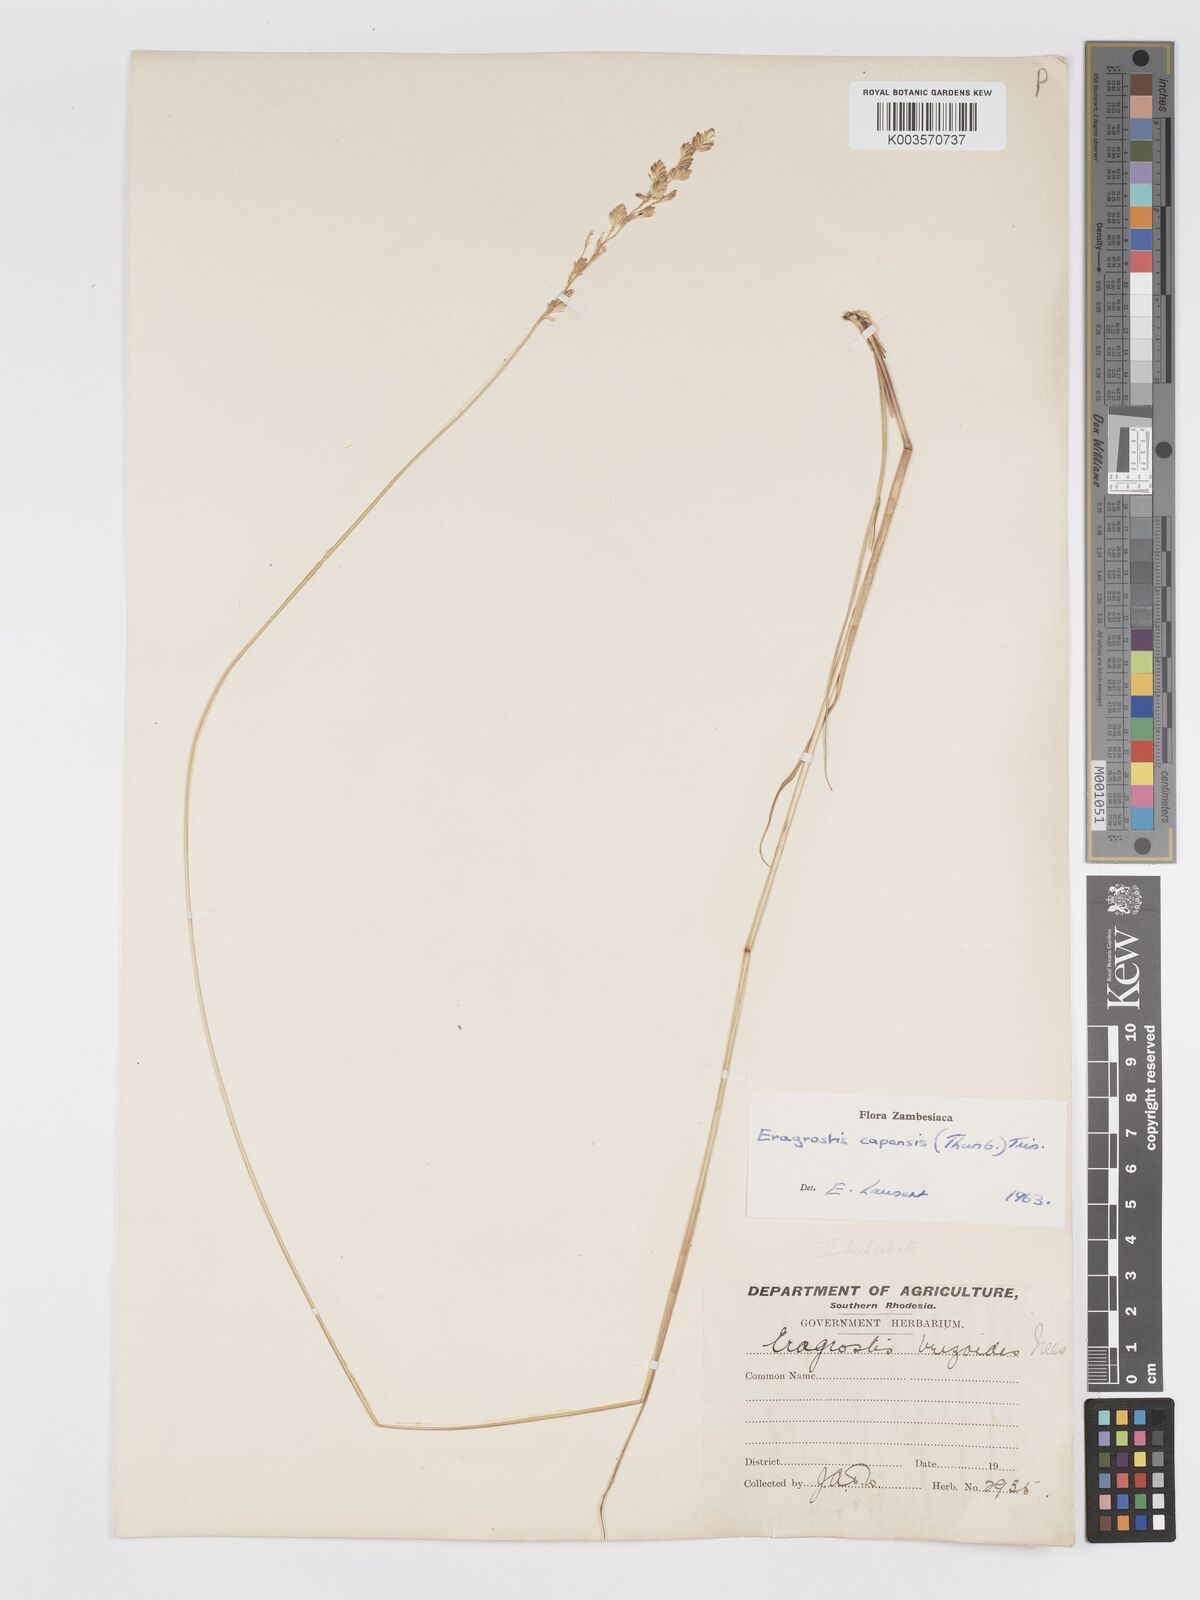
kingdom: Plantae
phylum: Tracheophyta
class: Liliopsida
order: Poales
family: Poaceae
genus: Eragrostis
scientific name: Eragrostis capensis
